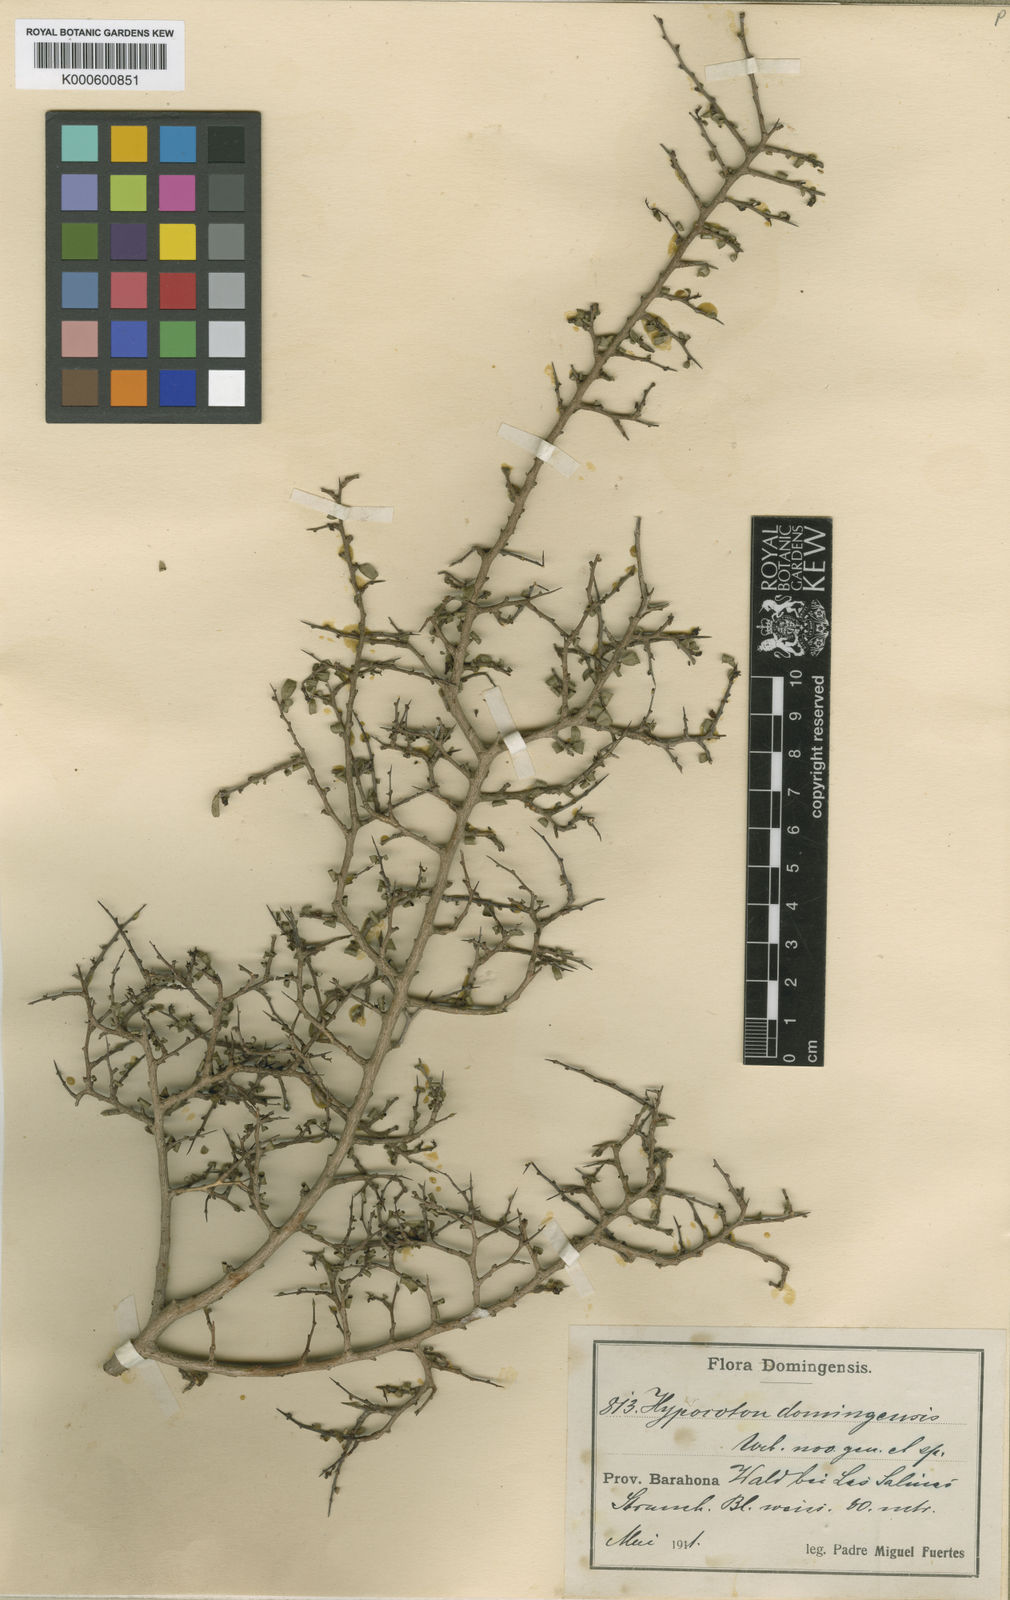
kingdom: Plantae
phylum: Tracheophyta
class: Magnoliopsida
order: Malpighiales
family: Euphorbiaceae
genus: Bonania
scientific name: Bonania domingensis
